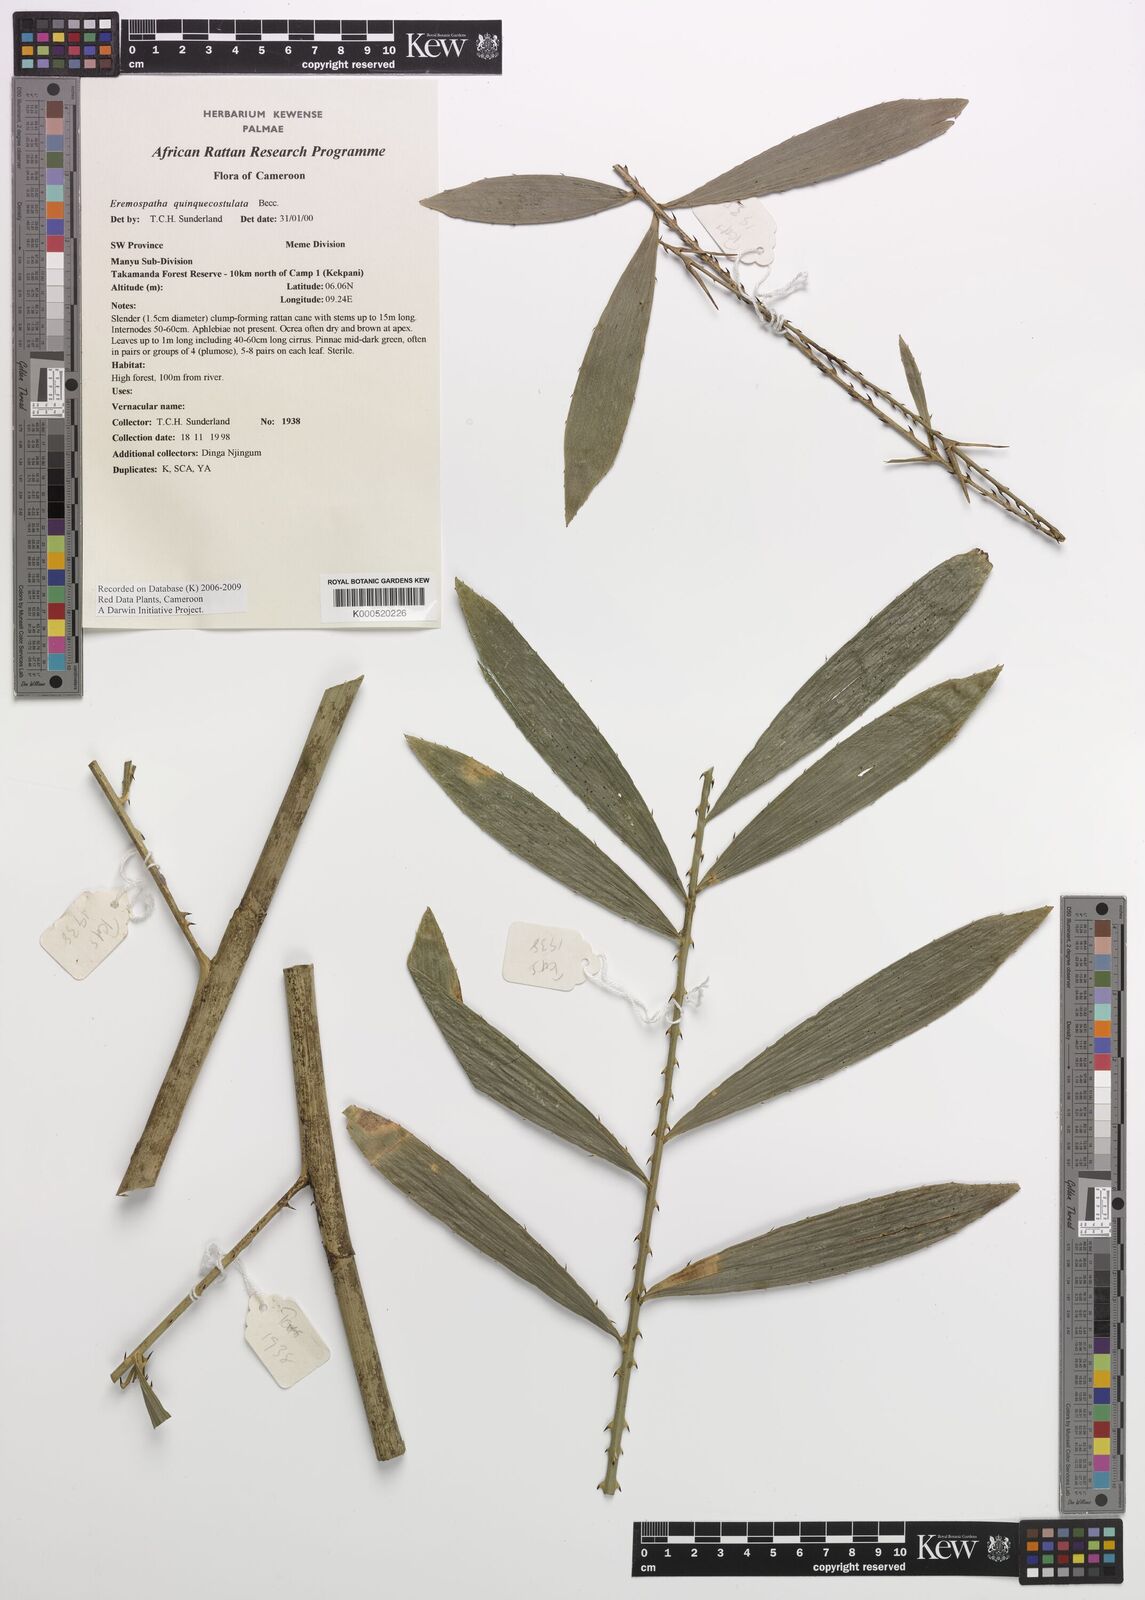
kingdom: Plantae
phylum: Tracheophyta
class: Liliopsida
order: Arecales
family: Arecaceae
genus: Eremospatha
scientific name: Eremospatha quinquecostulata
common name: Rattan
